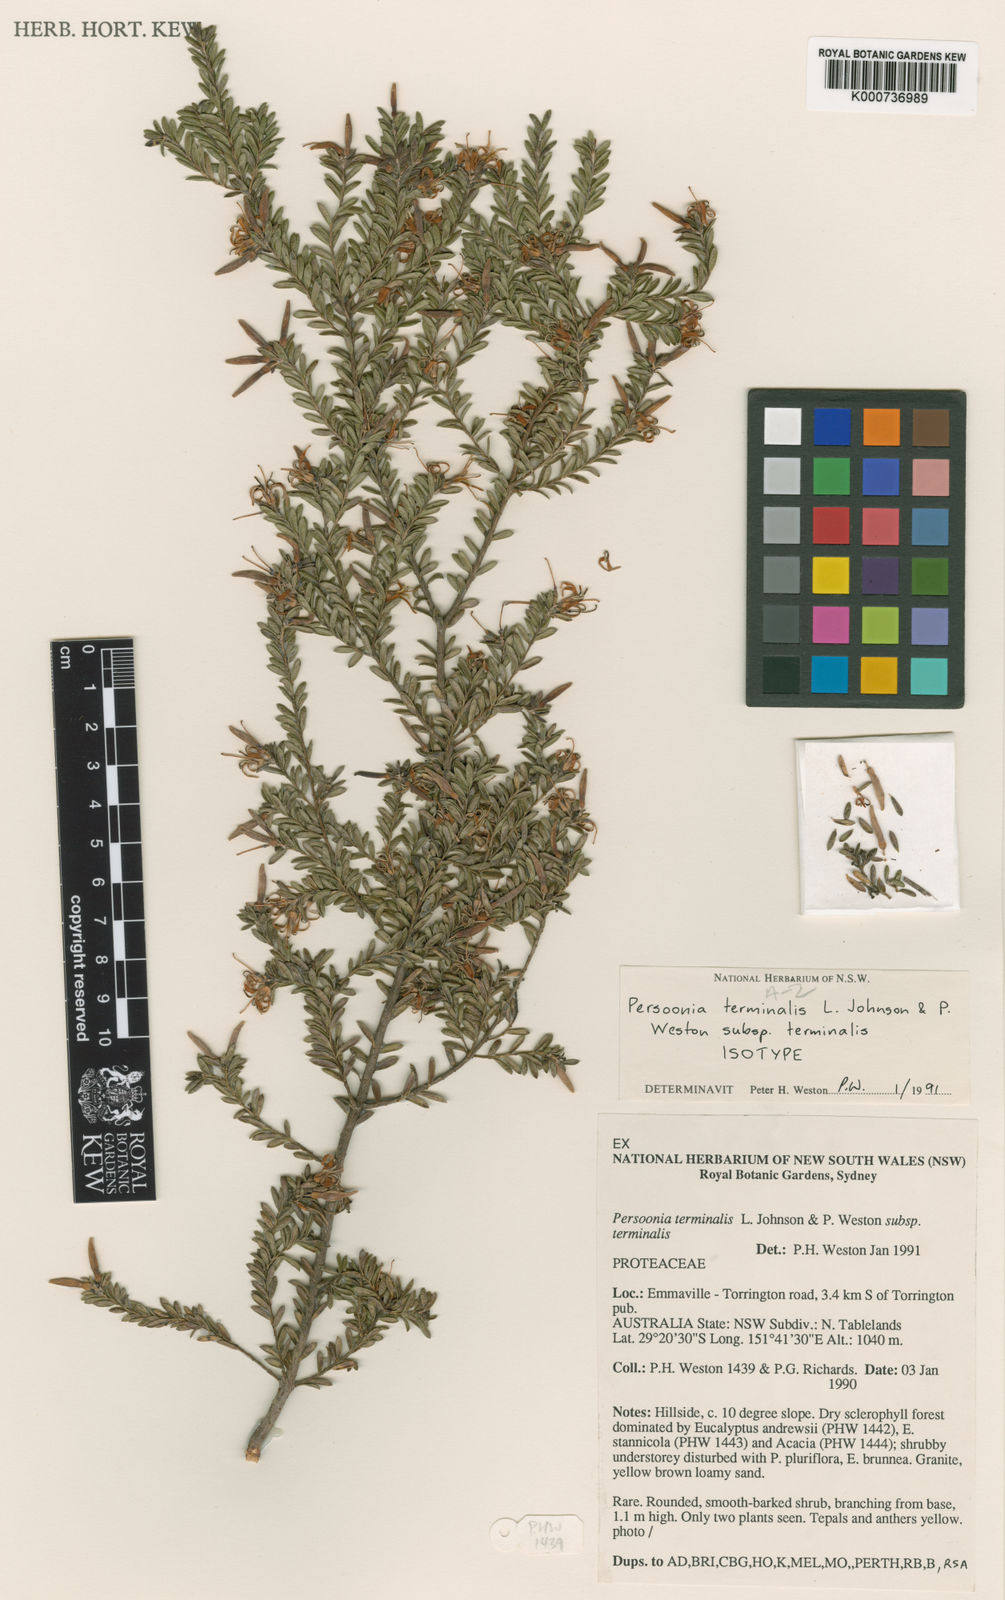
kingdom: Plantae
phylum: Tracheophyta
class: Magnoliopsida
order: Proteales
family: Proteaceae
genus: Persoonia
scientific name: Persoonia
